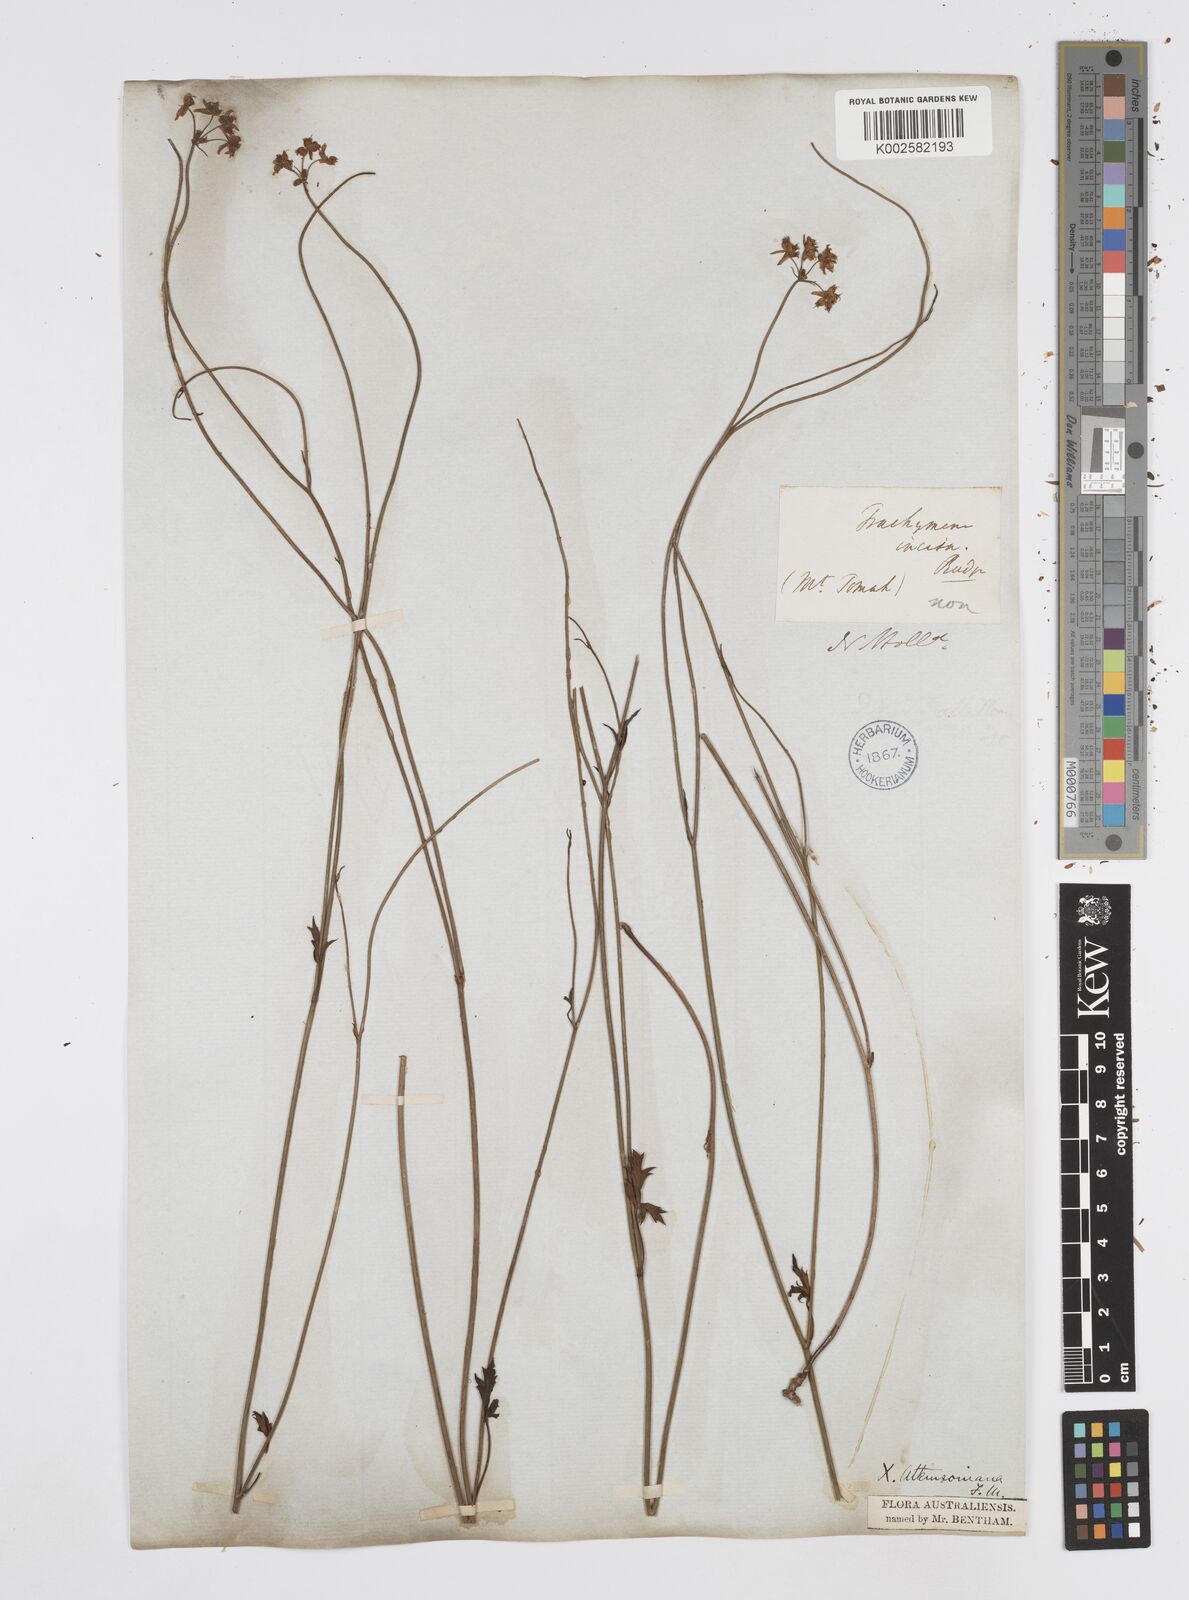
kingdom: Plantae
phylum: Tracheophyta
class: Magnoliopsida
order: Apiales
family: Apiaceae
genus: Xanthosia
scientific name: Xanthosia atkinsoniana
